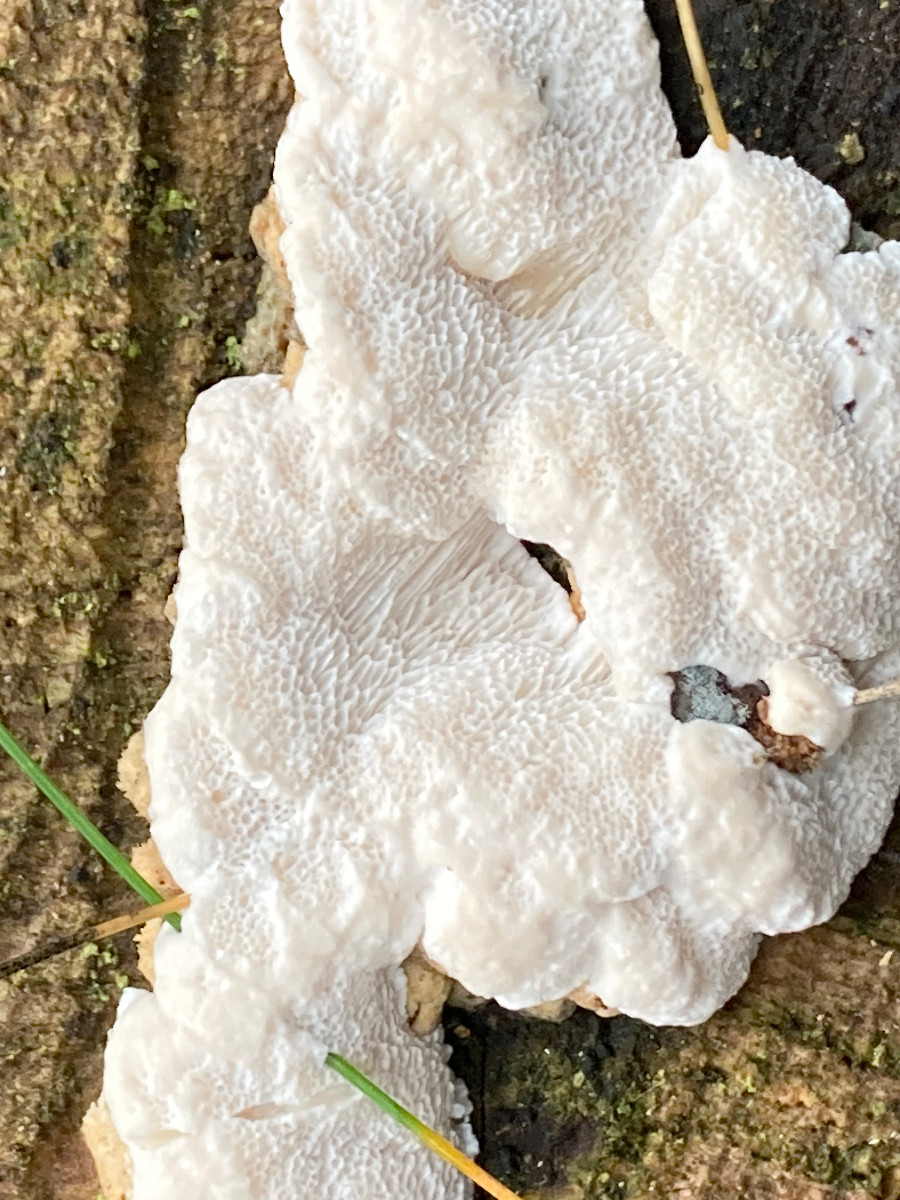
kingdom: Fungi
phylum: Basidiomycota
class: Agaricomycetes
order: Polyporales
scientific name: Polyporales
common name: poresvampordenen
